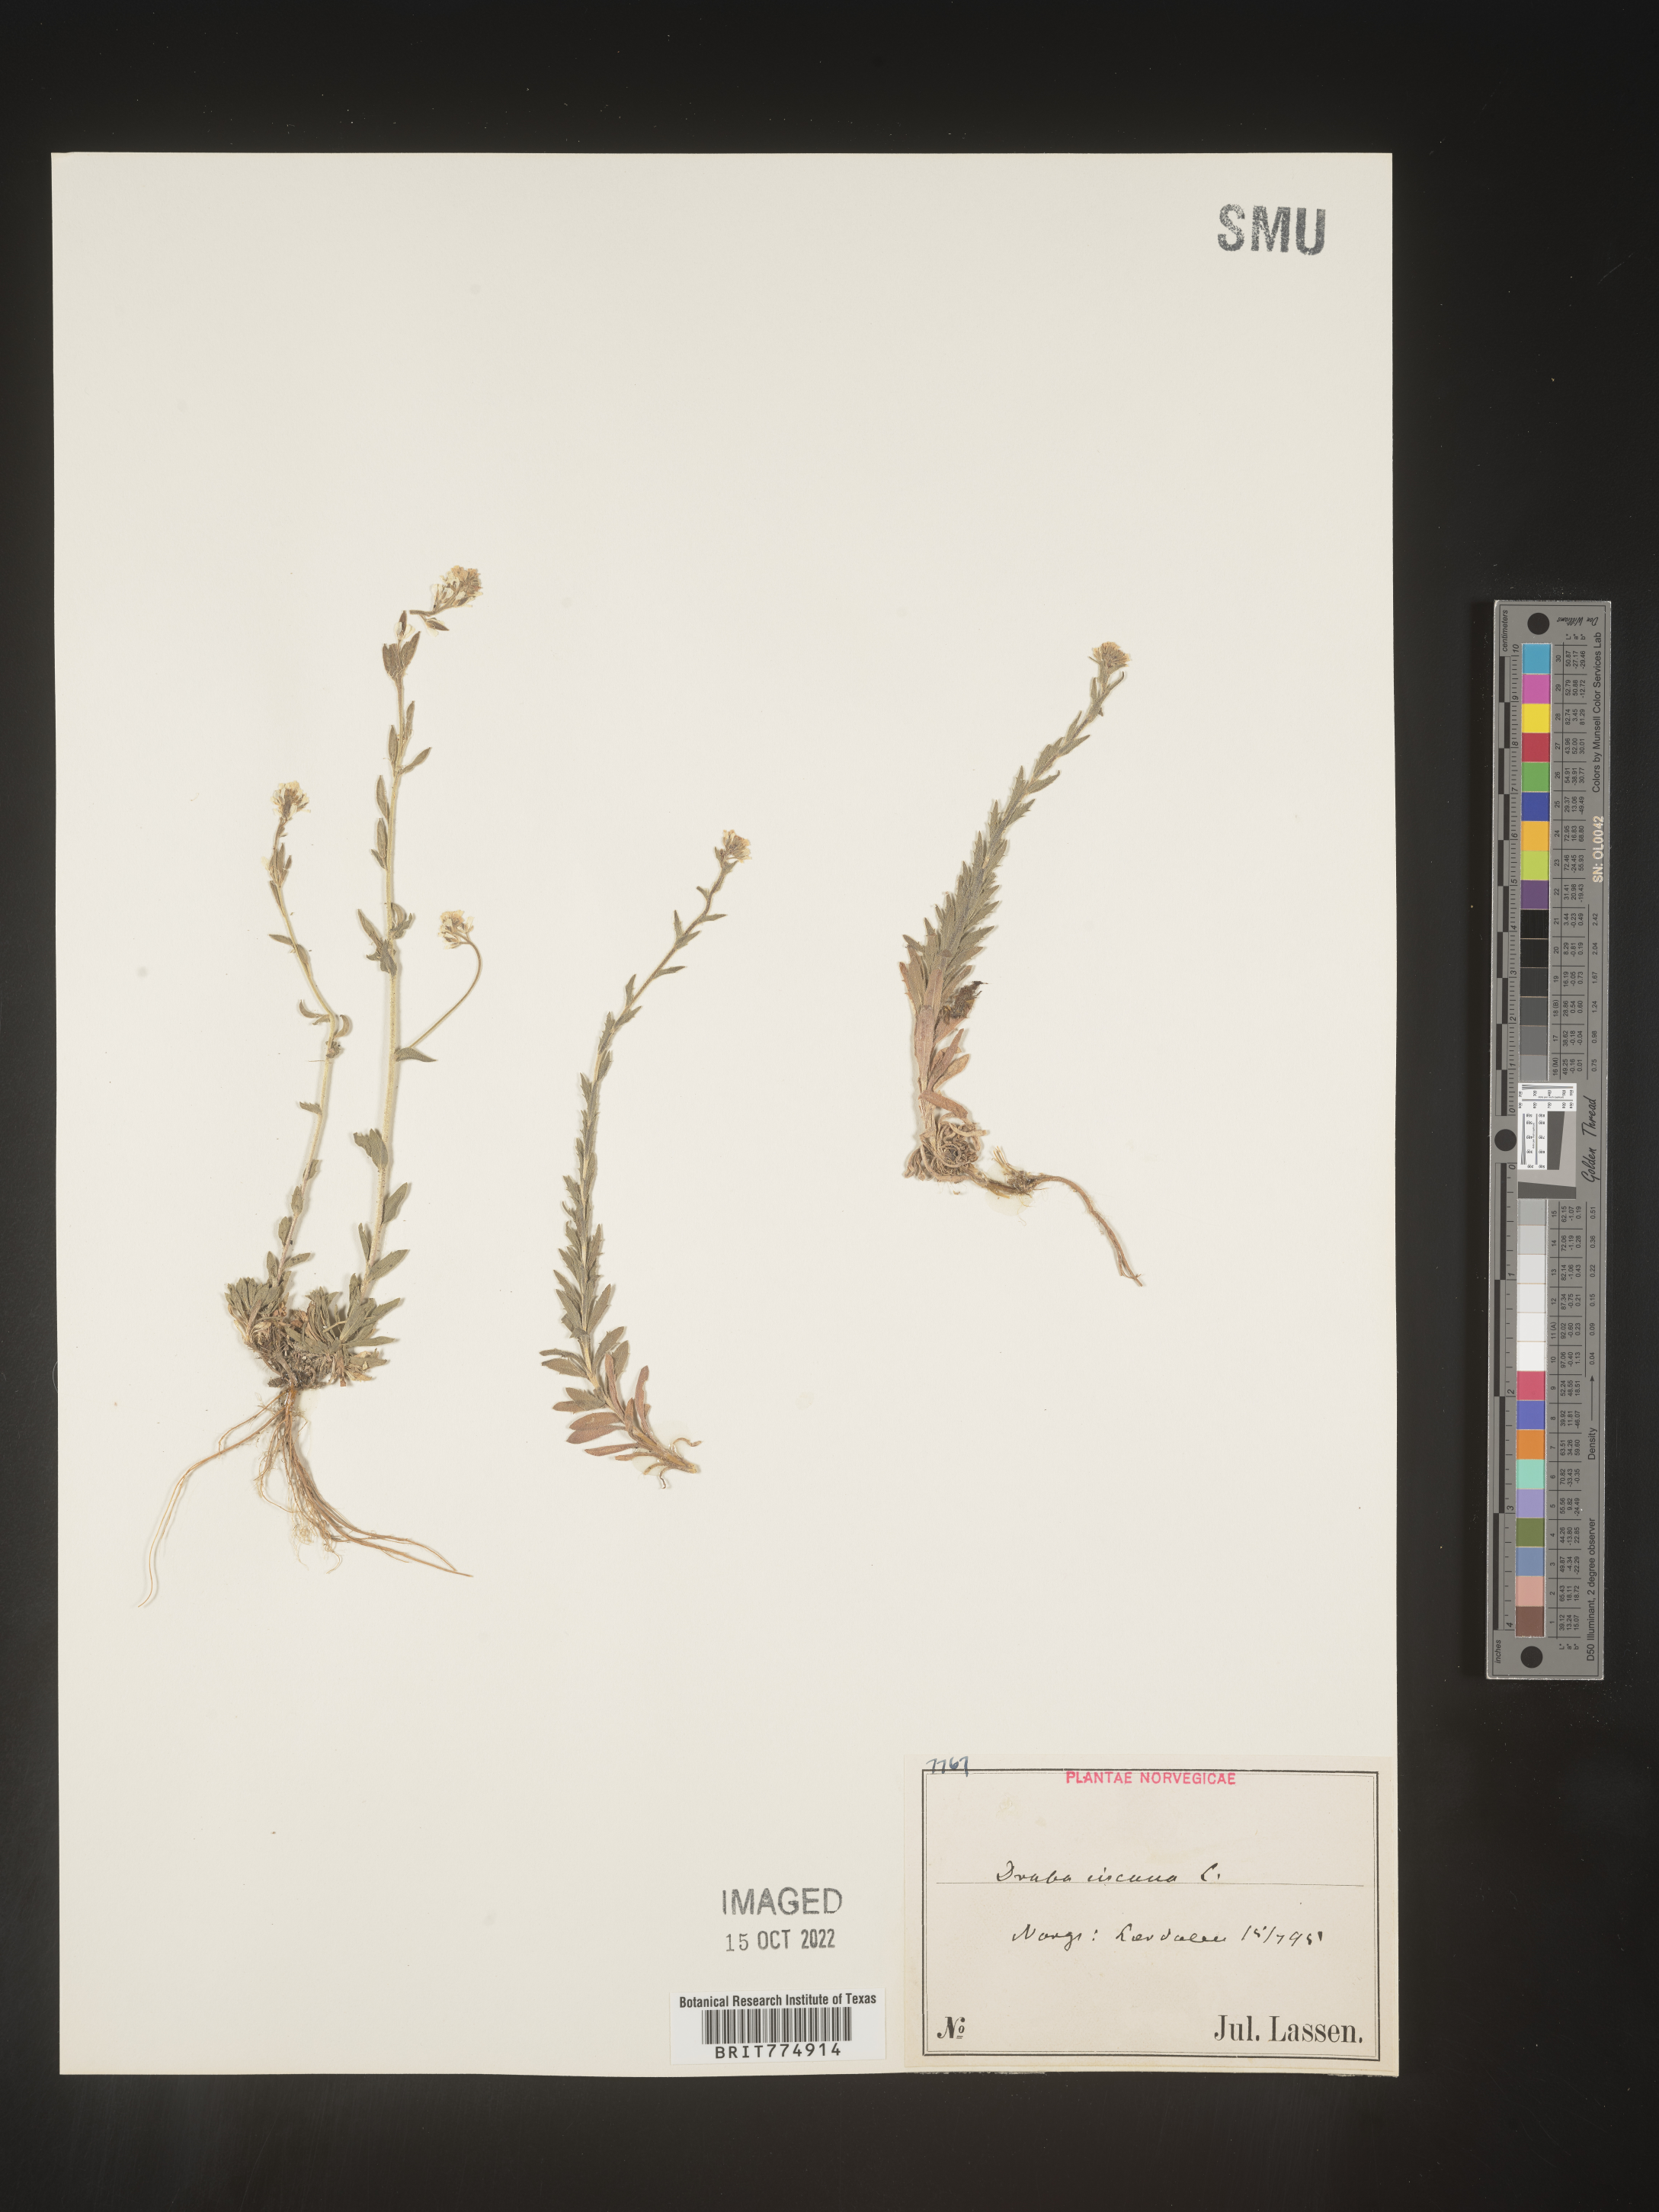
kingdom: Plantae
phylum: Tracheophyta
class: Magnoliopsida
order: Brassicales
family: Brassicaceae
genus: Draba
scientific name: Draba
